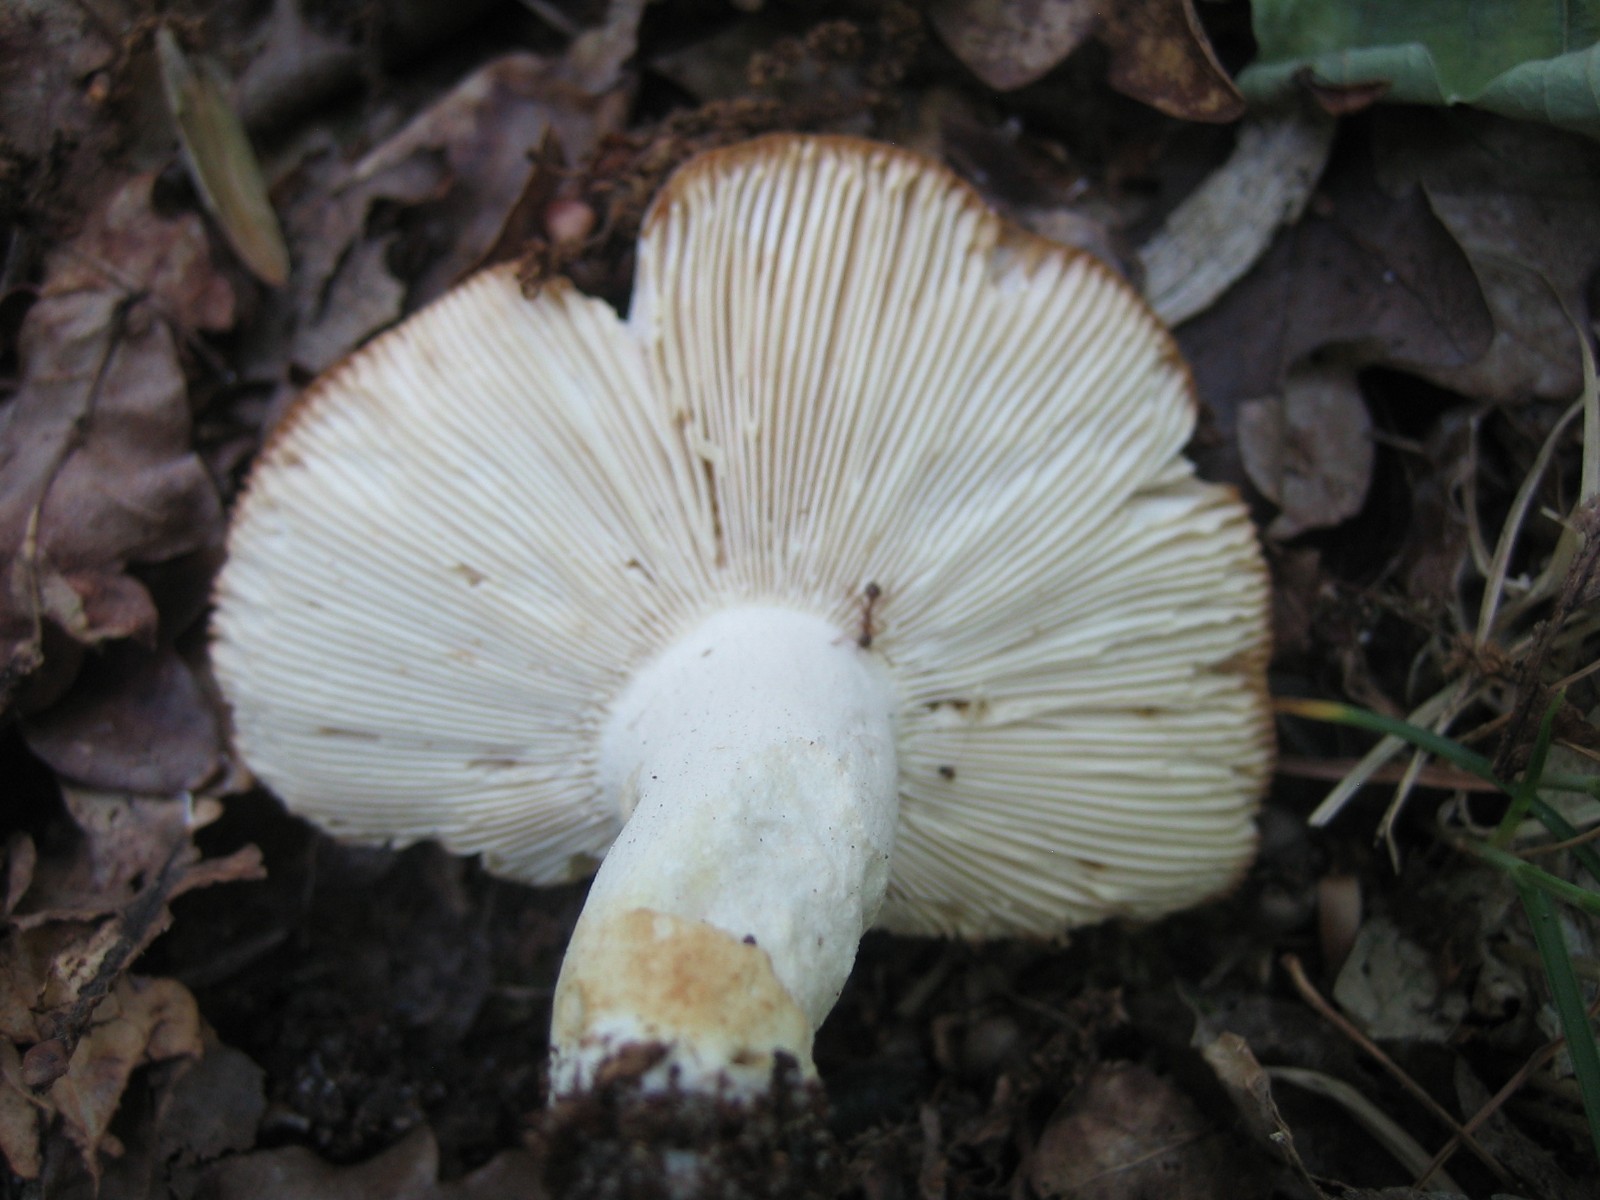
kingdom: Fungi
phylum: Basidiomycota
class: Agaricomycetes
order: Russulales
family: Russulaceae
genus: Russula
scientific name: Russula vesca
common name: spiselig skørhat
